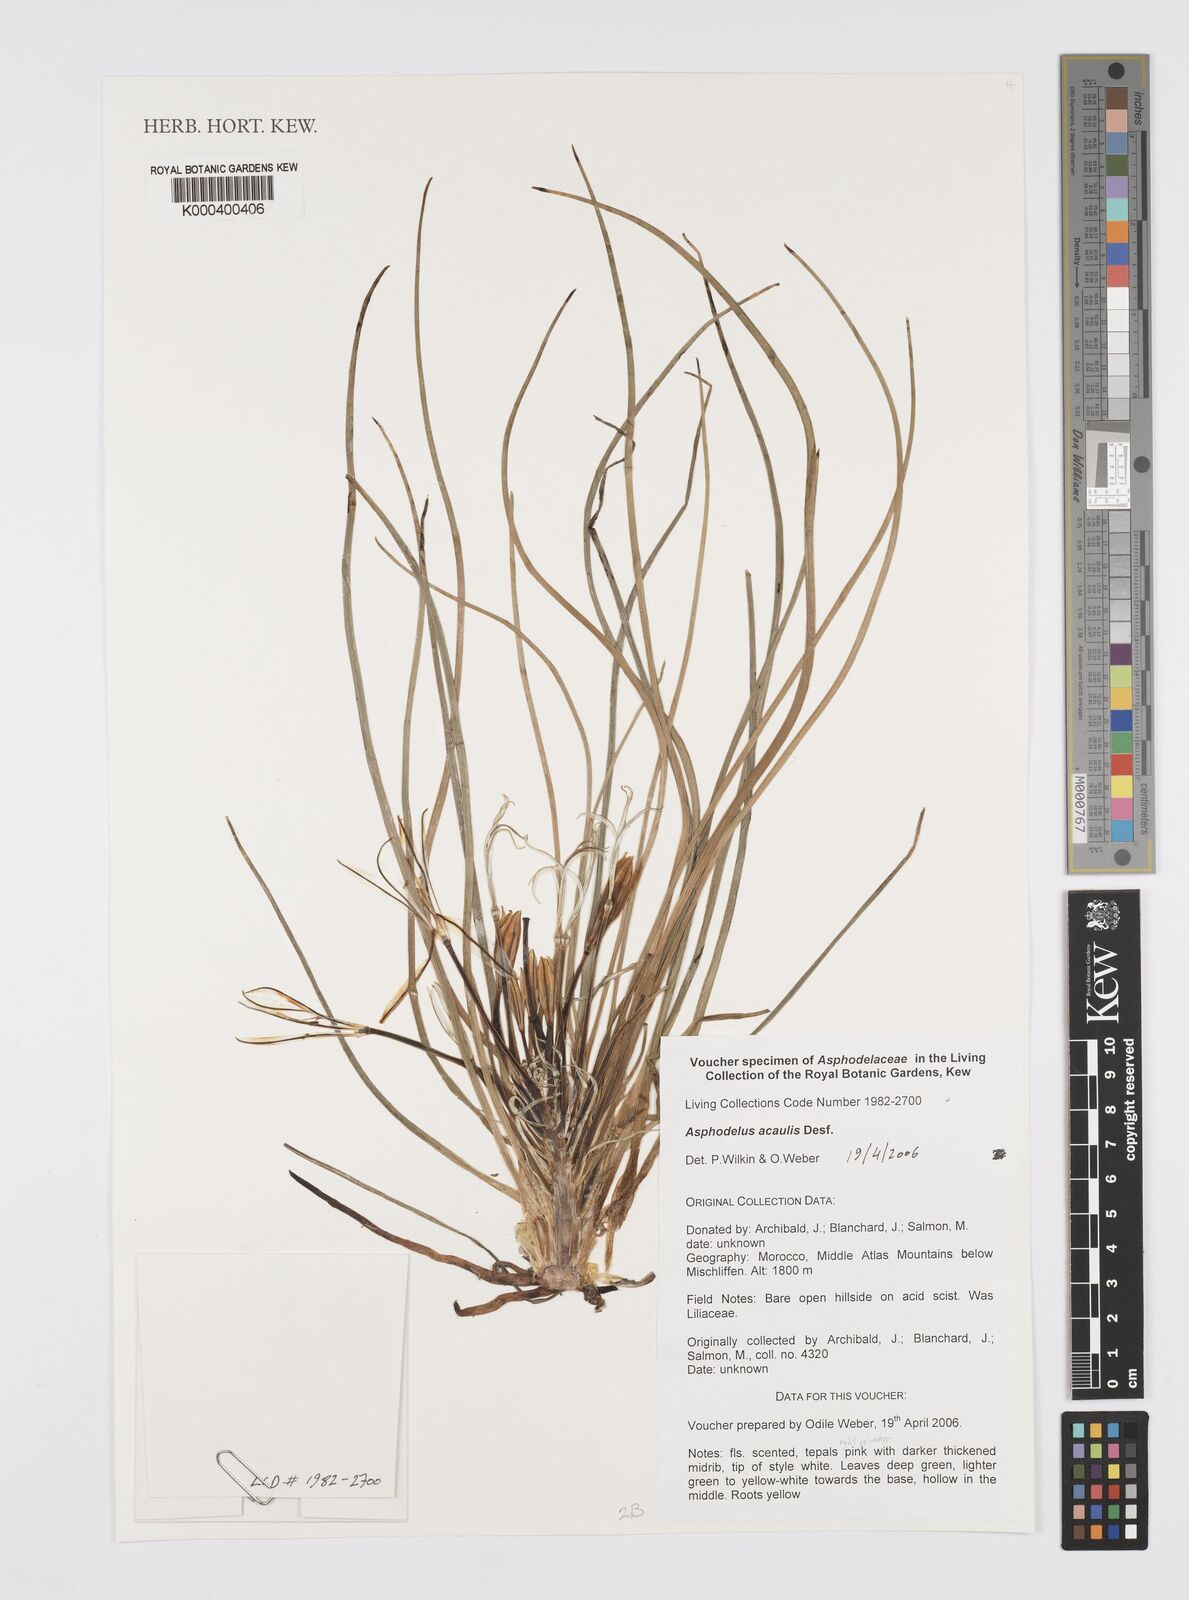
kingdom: Plantae
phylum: Tracheophyta
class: Liliopsida
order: Asparagales
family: Asphodelaceae
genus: Asphodelus
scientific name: Asphodelus acaulis
